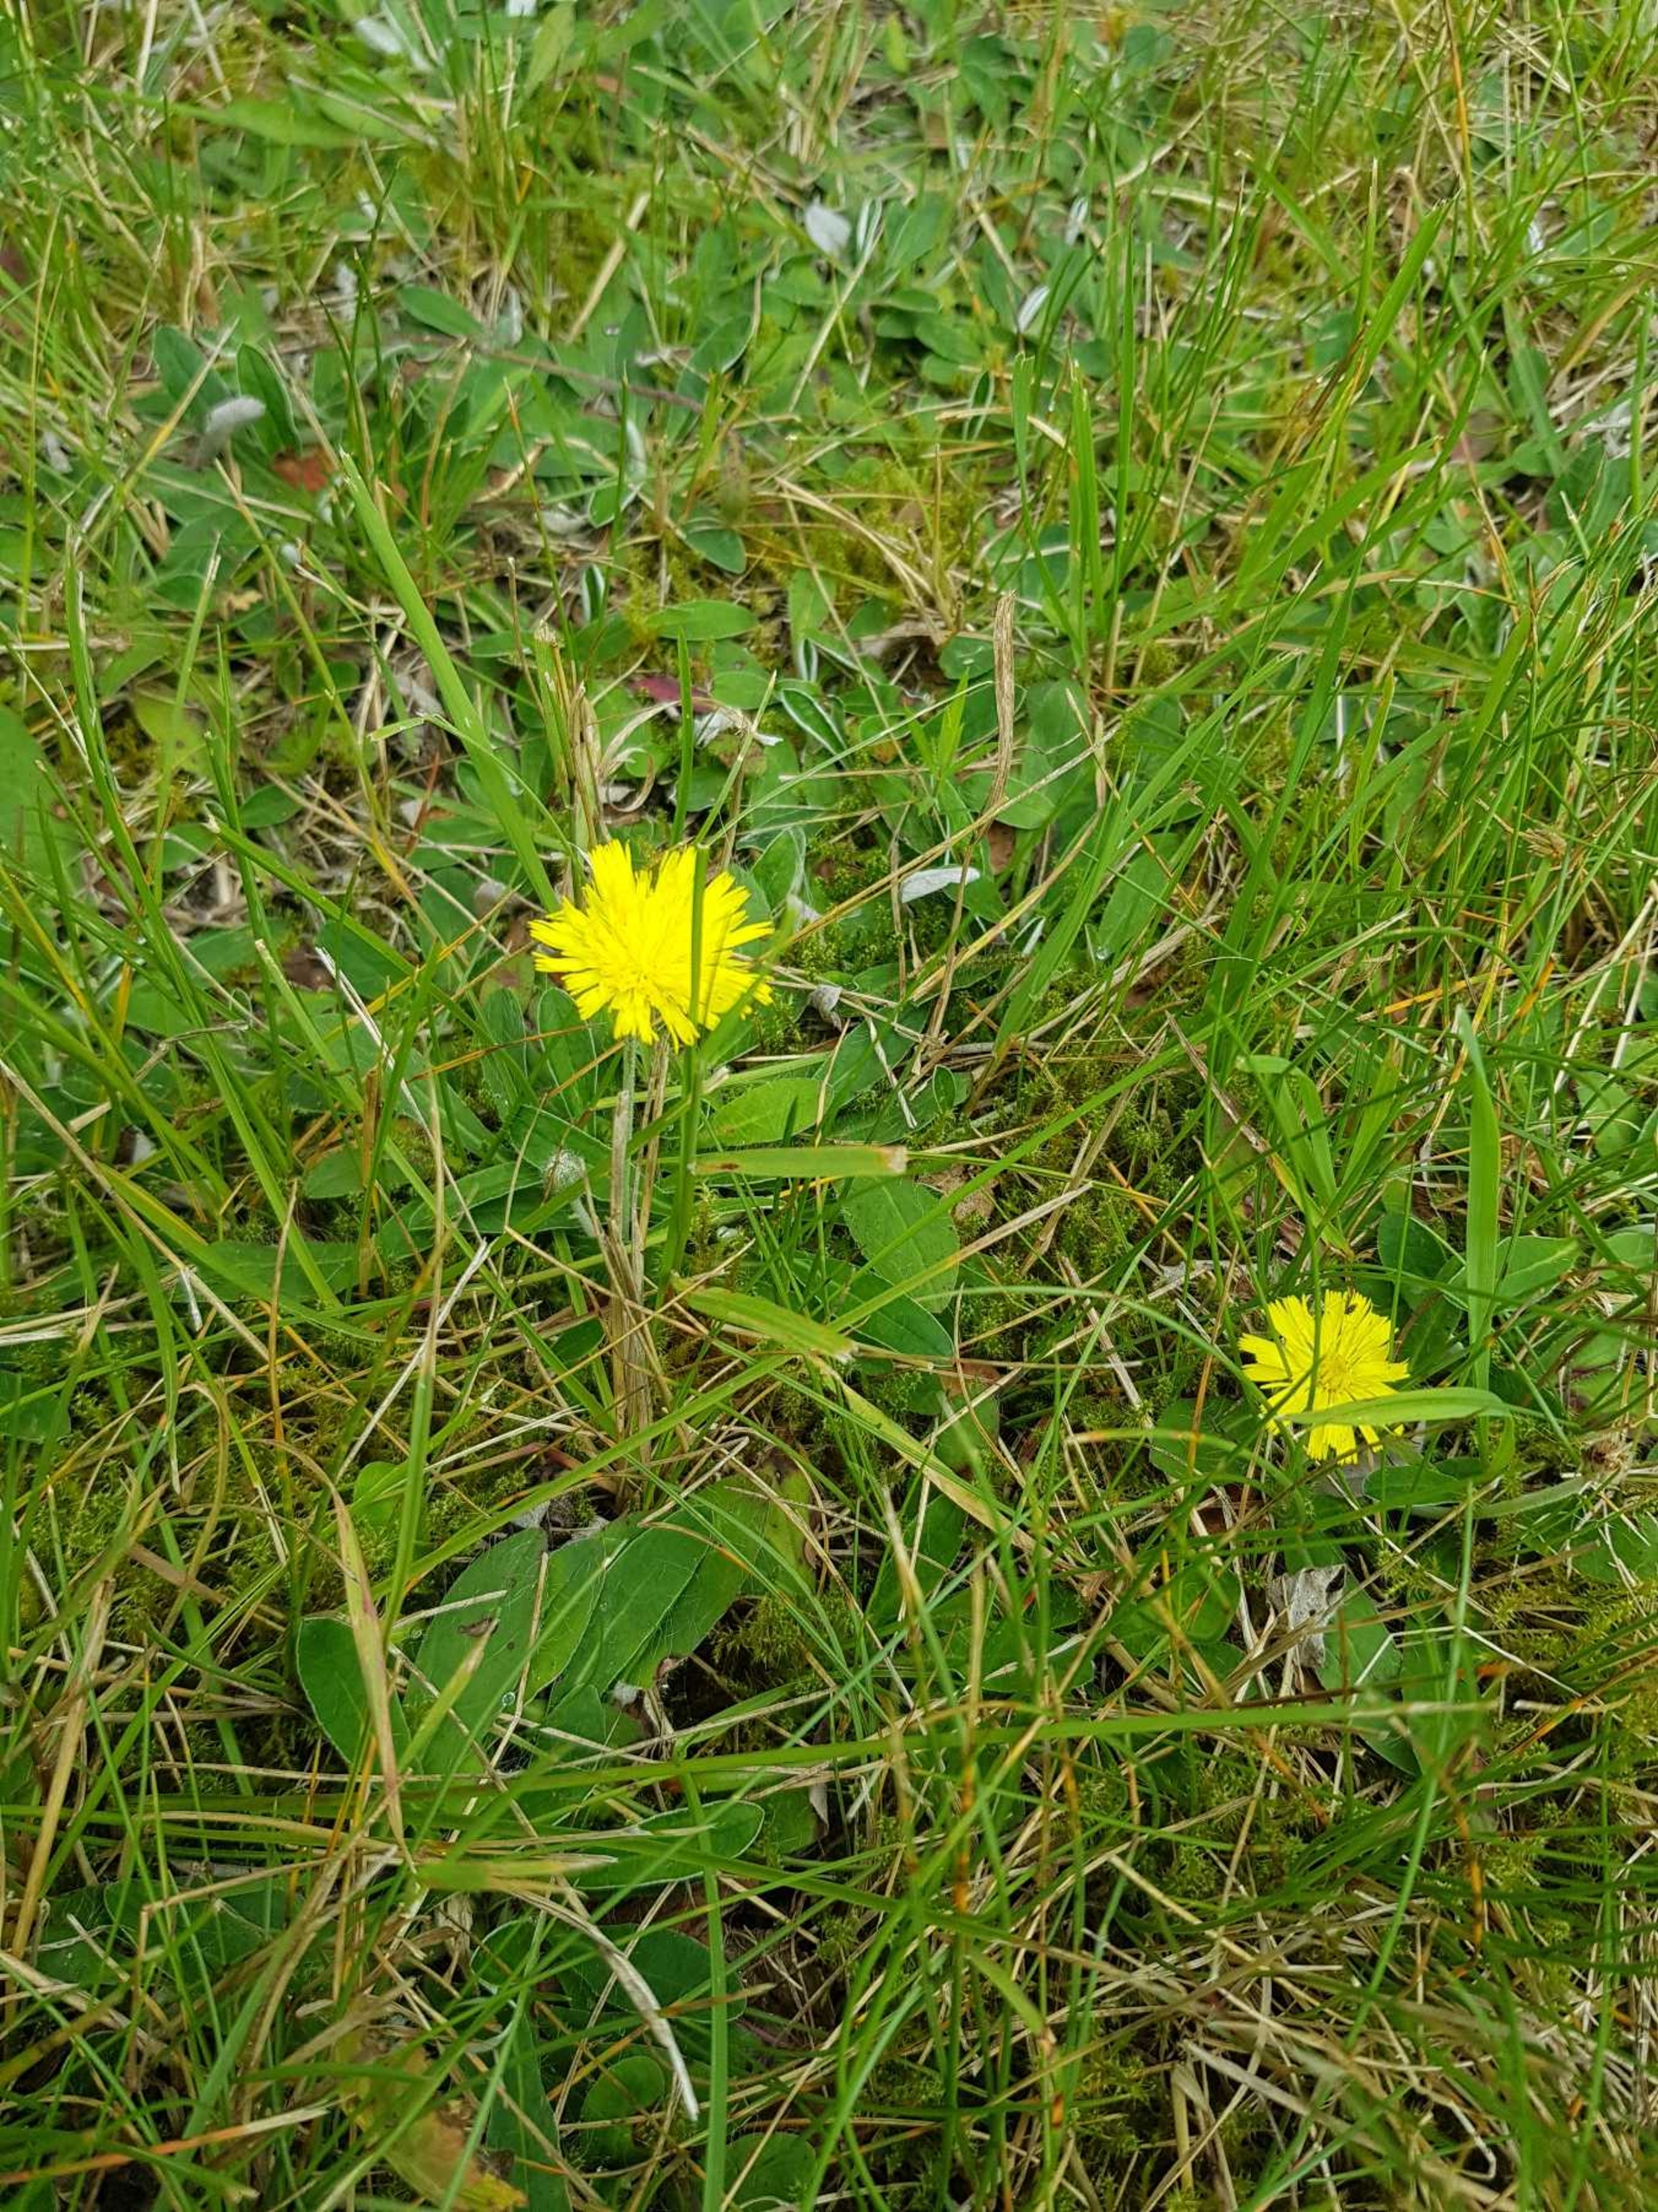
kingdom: Plantae
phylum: Tracheophyta
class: Magnoliopsida
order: Asterales
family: Asteraceae
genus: Pilosella
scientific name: Pilosella officinarum
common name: Håret høgeurt
